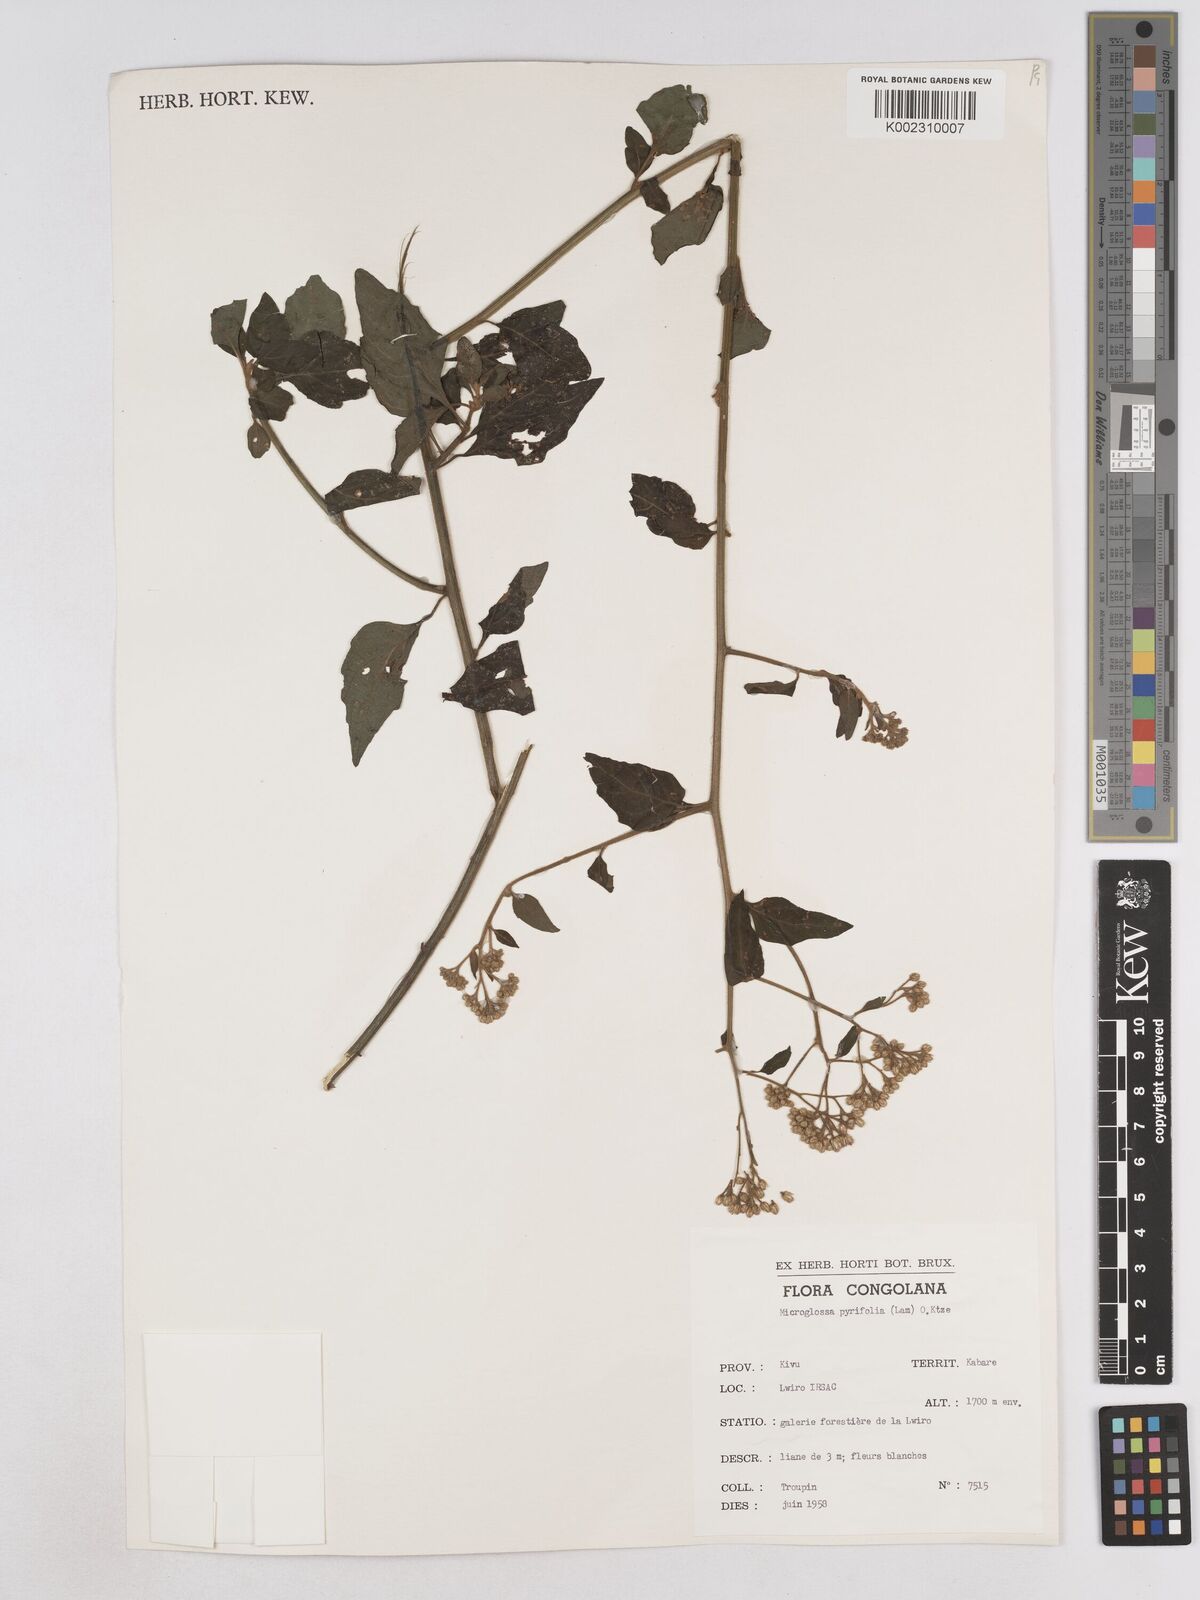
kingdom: Plantae
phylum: Tracheophyta
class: Magnoliopsida
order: Asterales
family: Asteraceae
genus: Microglossa
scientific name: Microglossa pyrifolia
